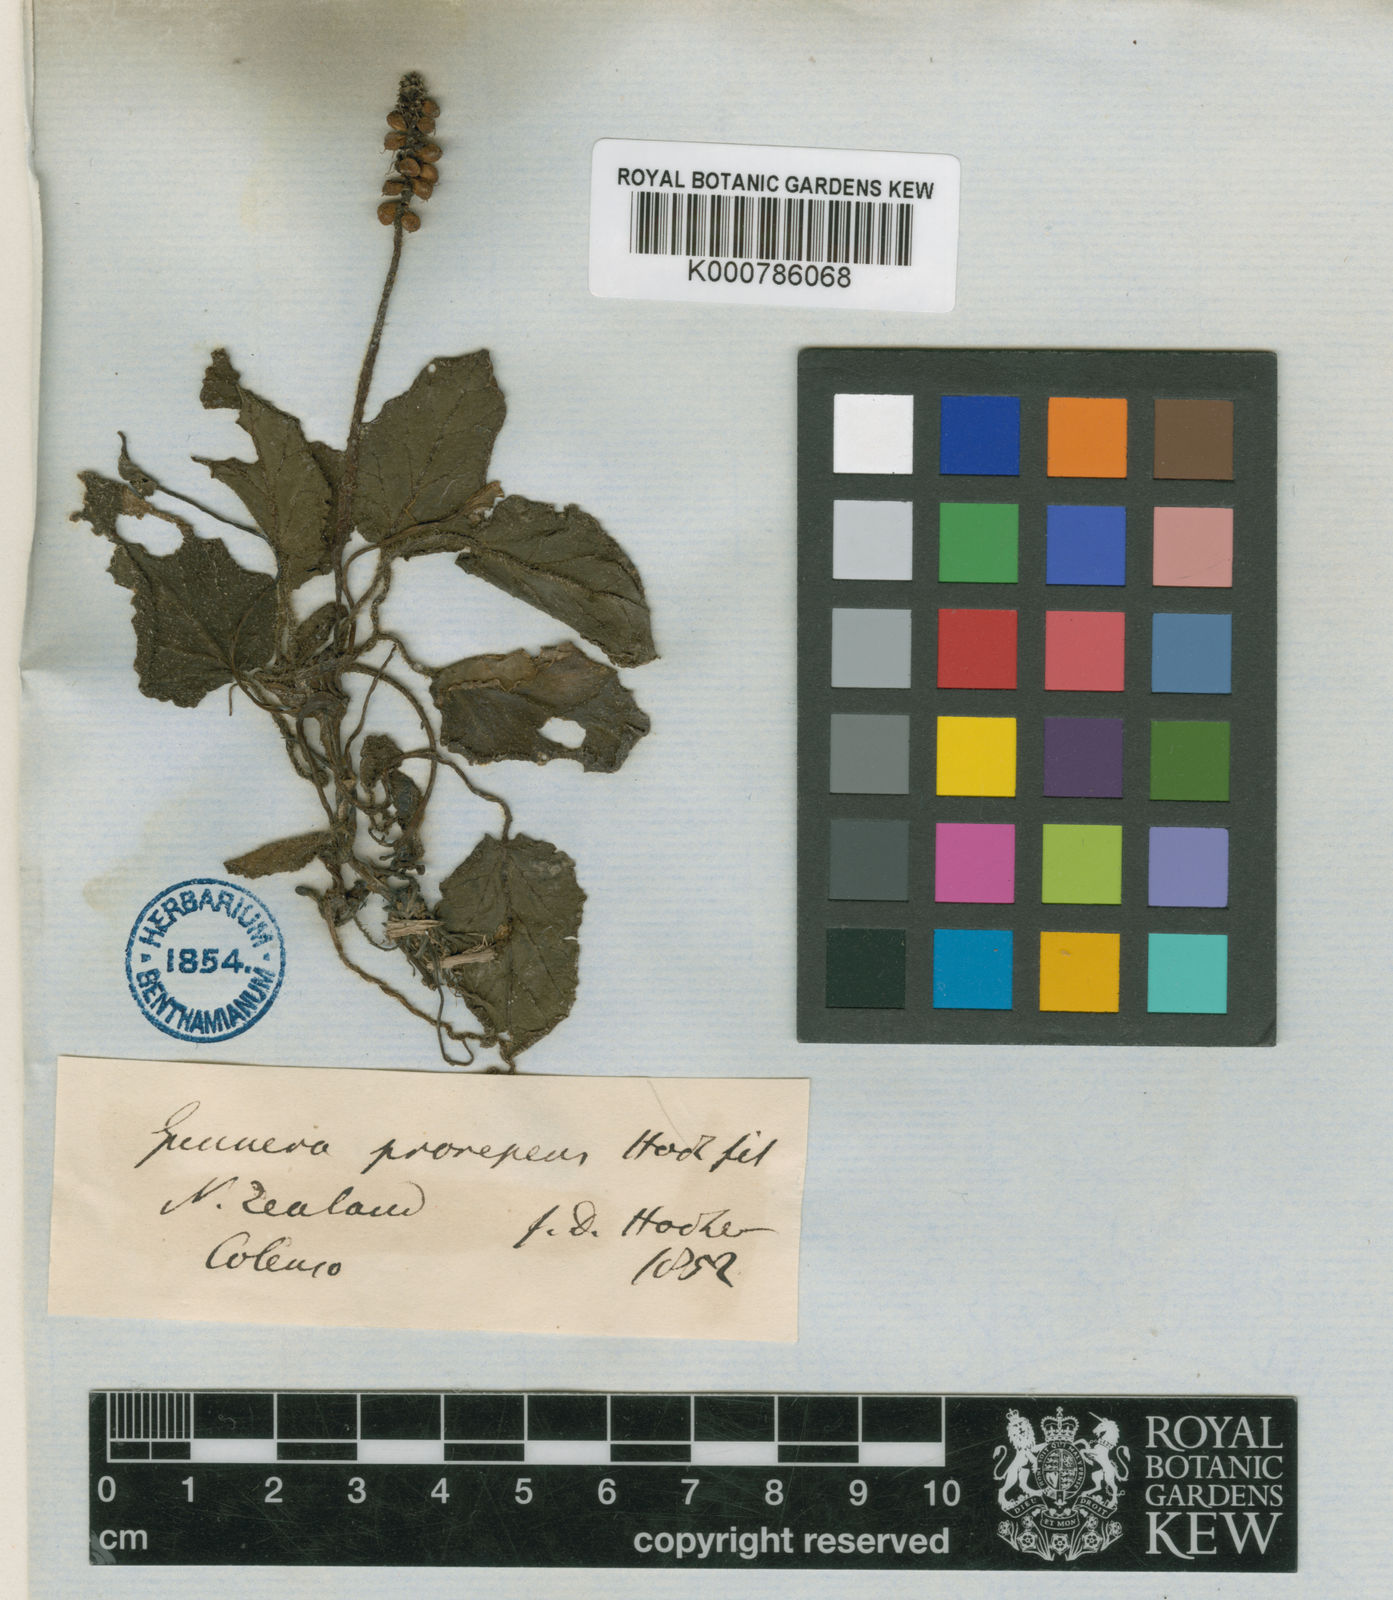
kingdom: Plantae
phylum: Tracheophyta
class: Magnoliopsida
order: Gunnerales
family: Gunneraceae
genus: Gunnera
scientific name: Gunnera prorepens
